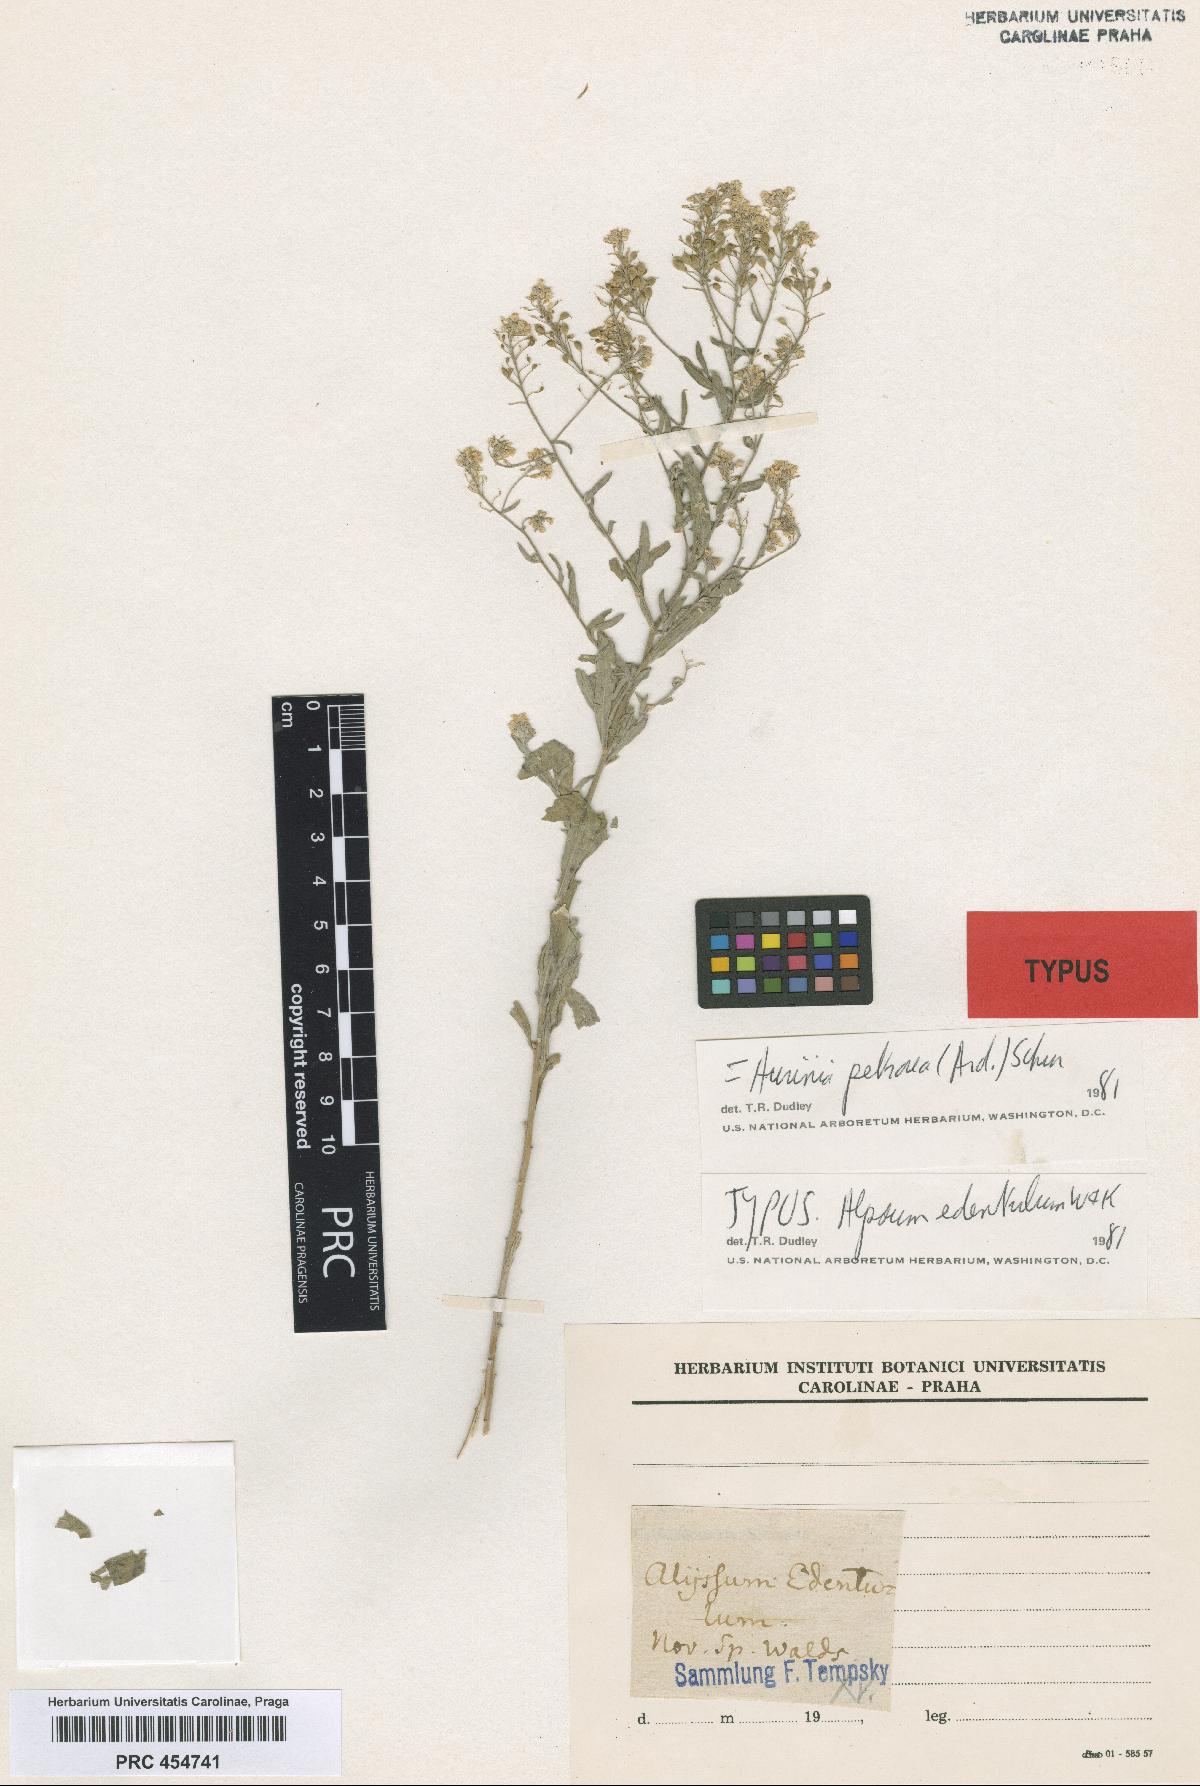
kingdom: Plantae
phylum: Tracheophyta
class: Magnoliopsida
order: Brassicales
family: Brassicaceae
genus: Aurinia
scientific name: Aurinia petraea
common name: Goldentuft
